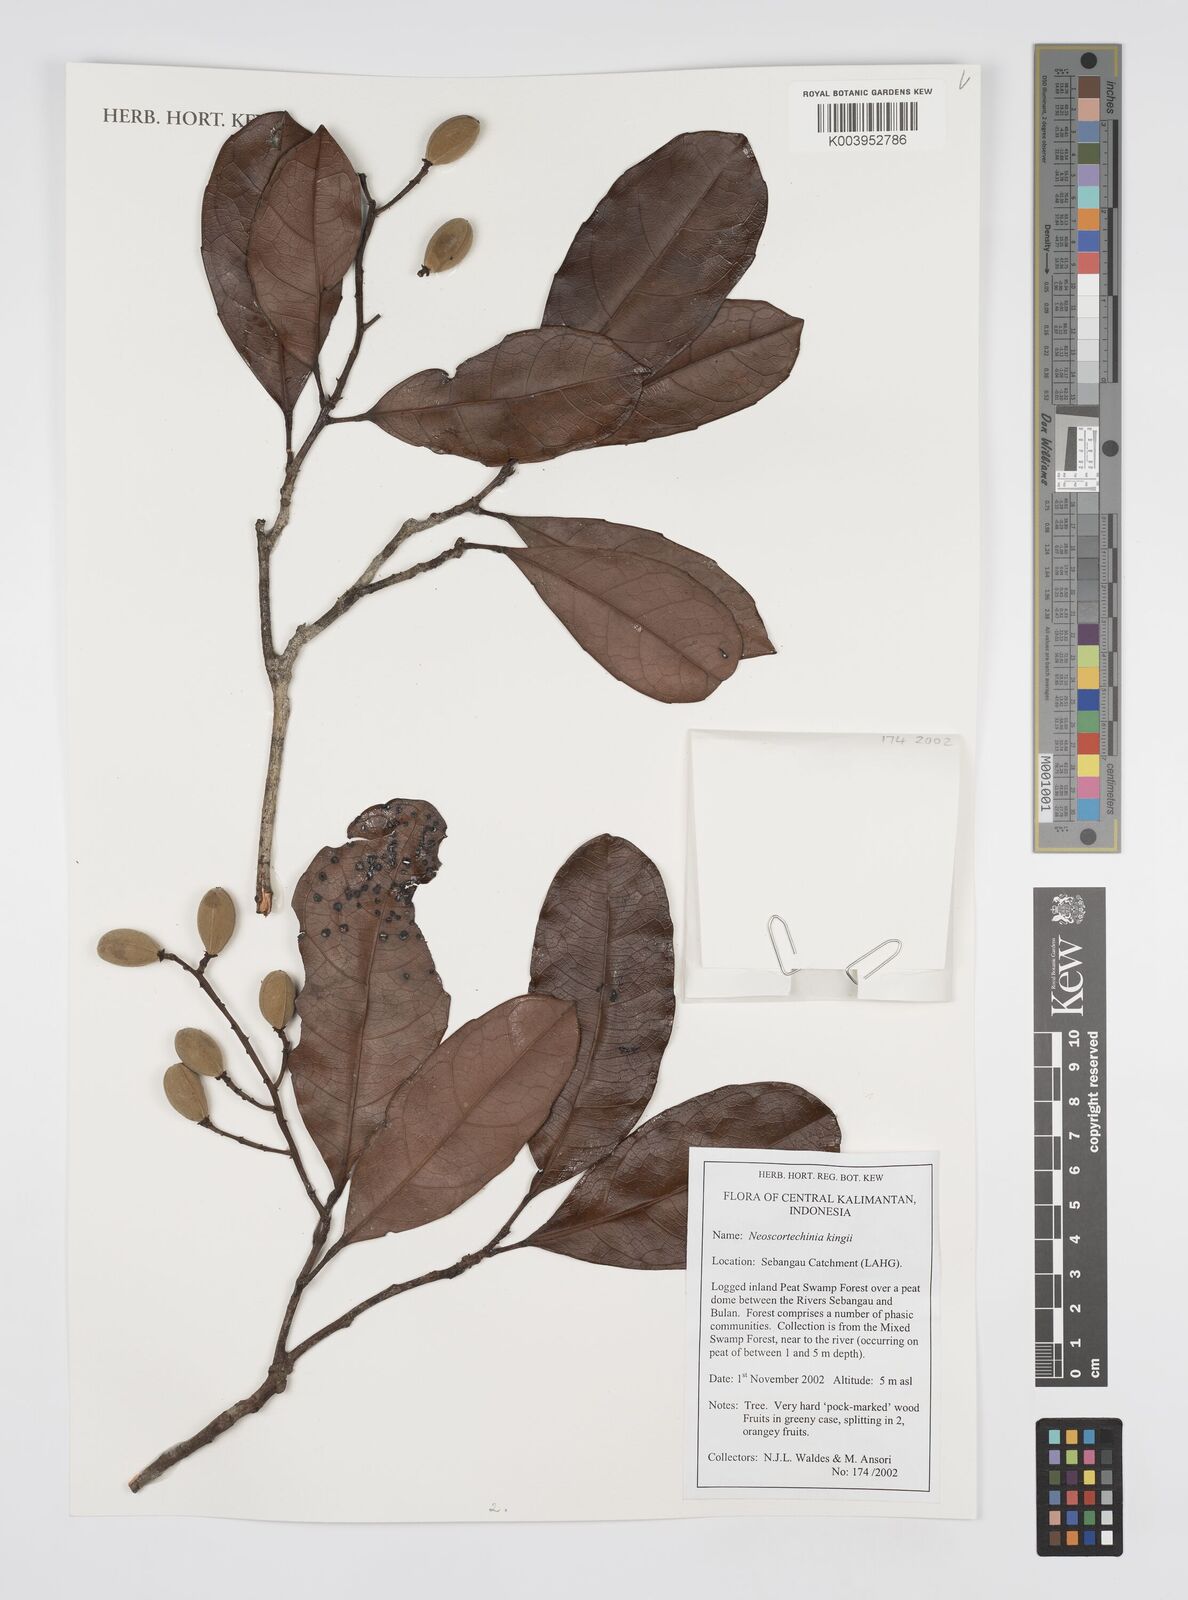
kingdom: Plantae
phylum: Tracheophyta
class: Magnoliopsida
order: Malpighiales
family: Euphorbiaceae
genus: Neoscortechinia
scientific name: Neoscortechinia kingii
